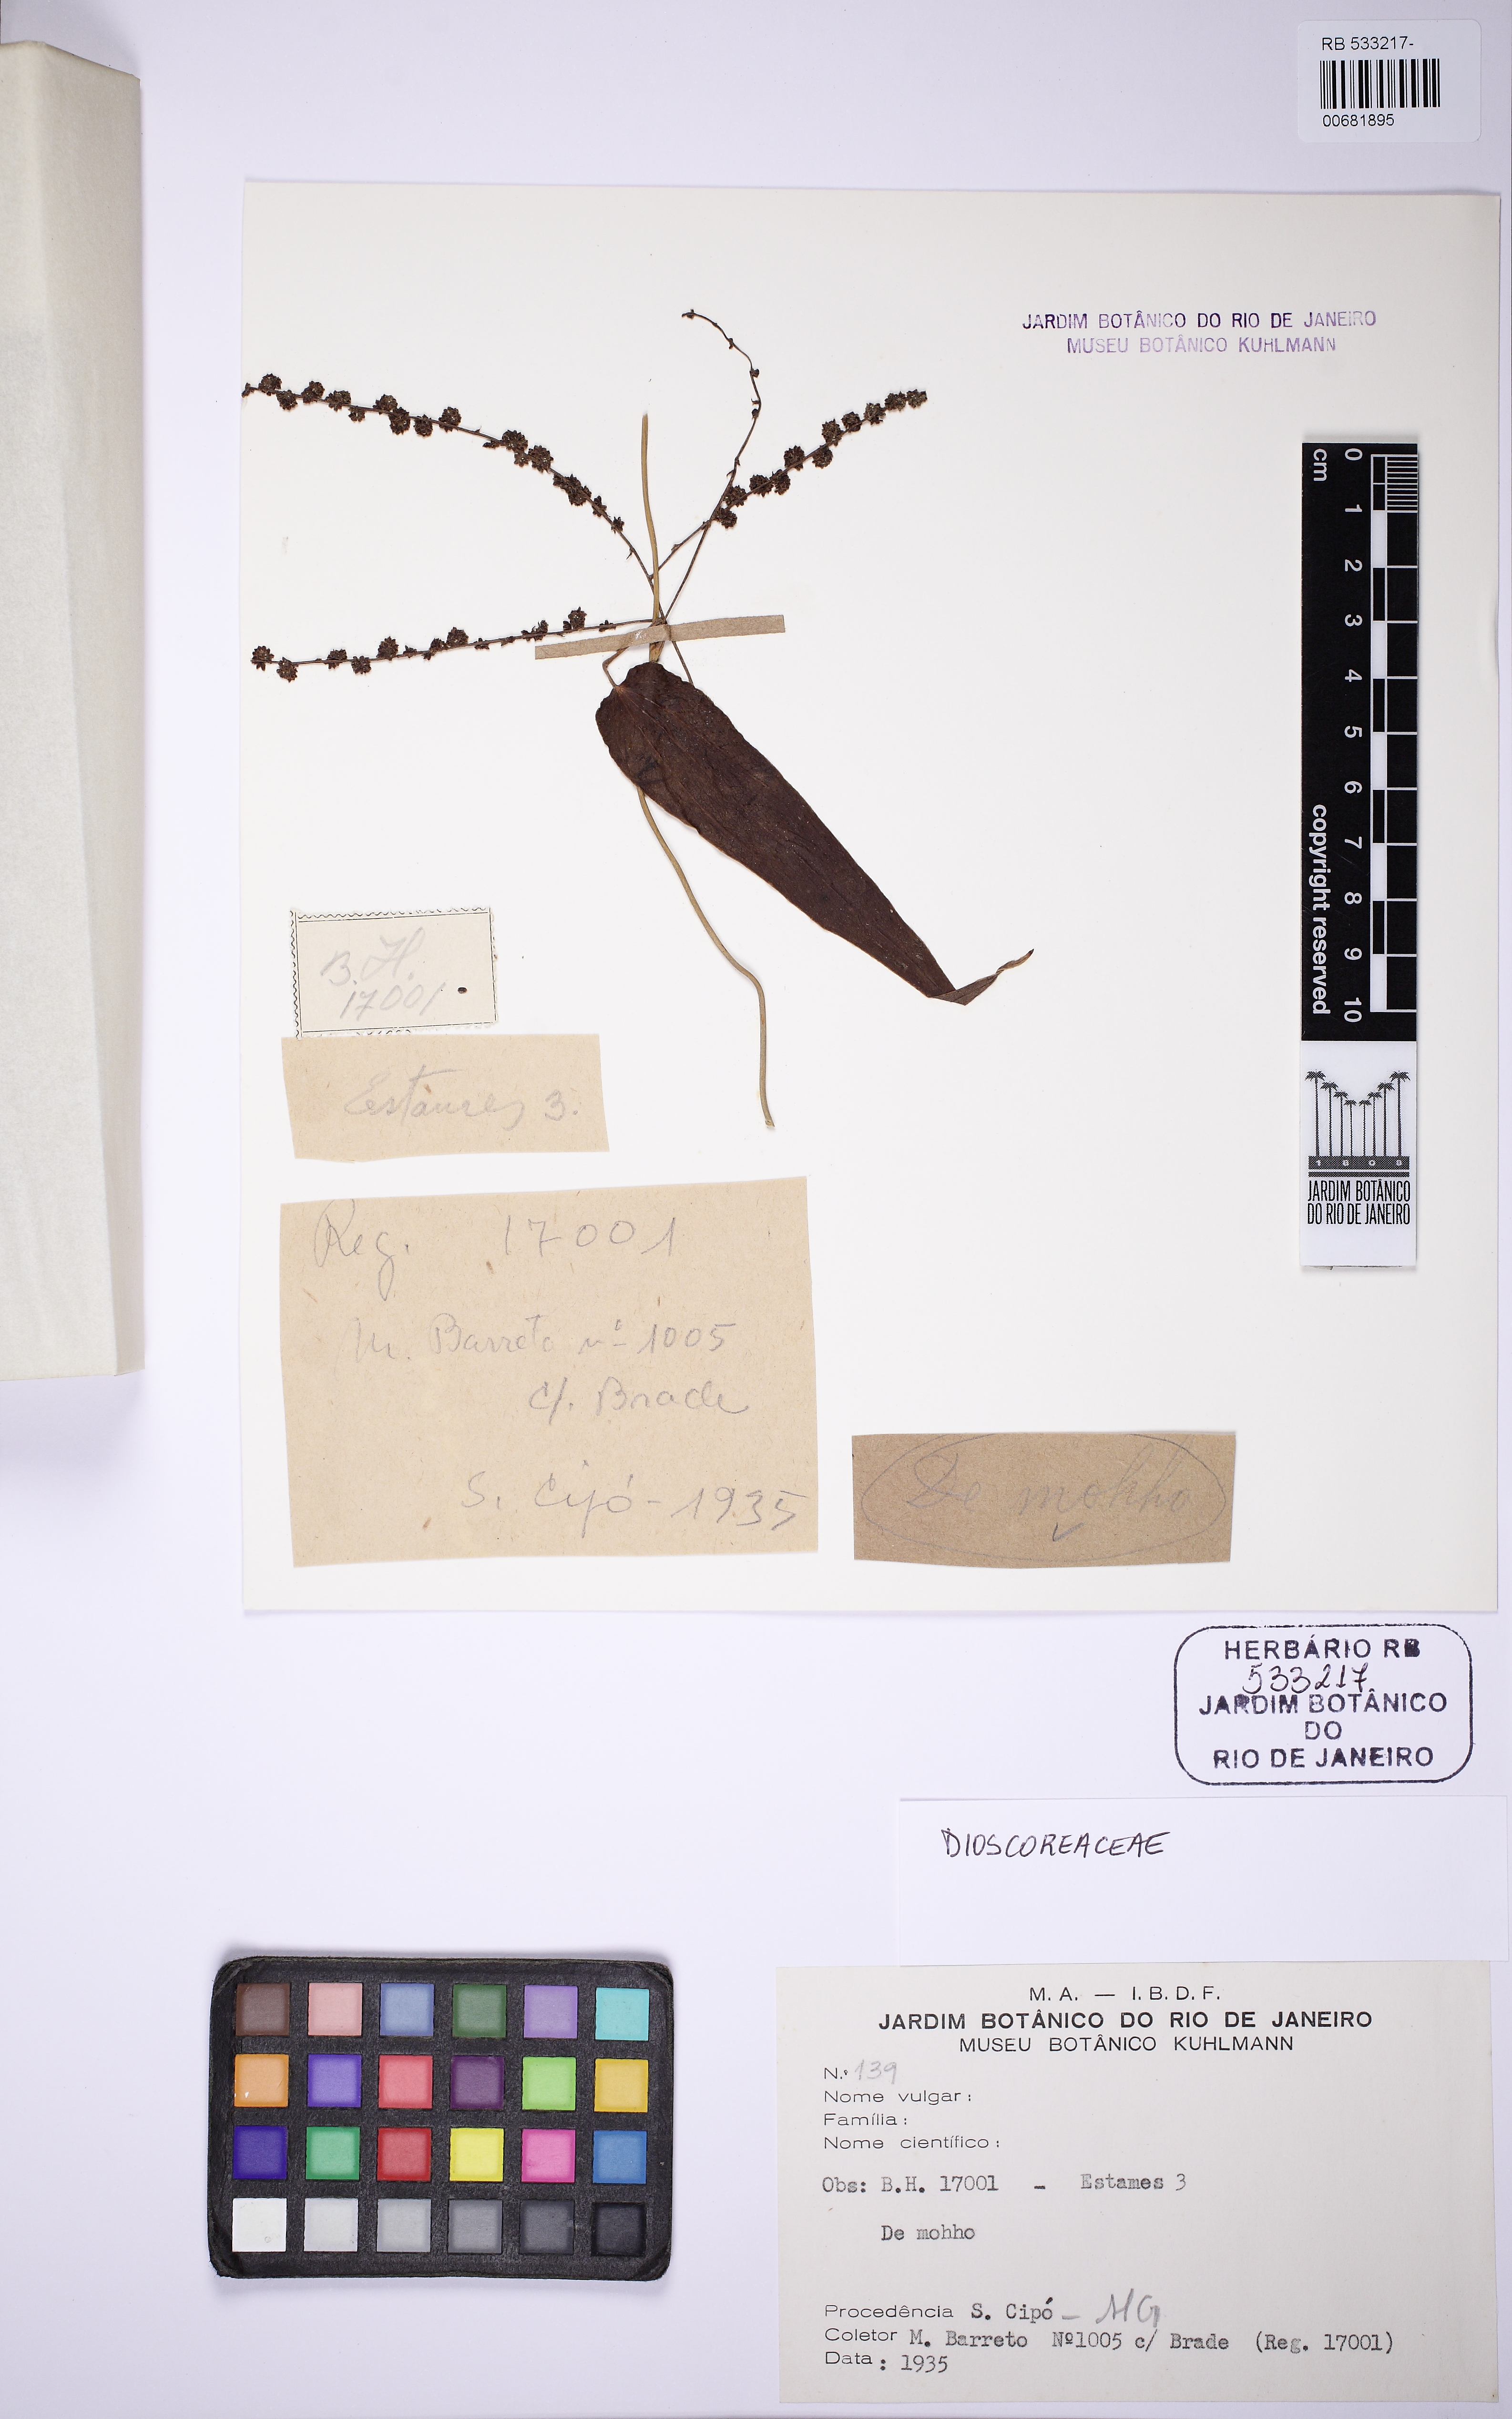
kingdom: Plantae
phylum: Tracheophyta
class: Liliopsida
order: Dioscoreales
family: Dioscoreaceae
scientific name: Dioscoreaceae
